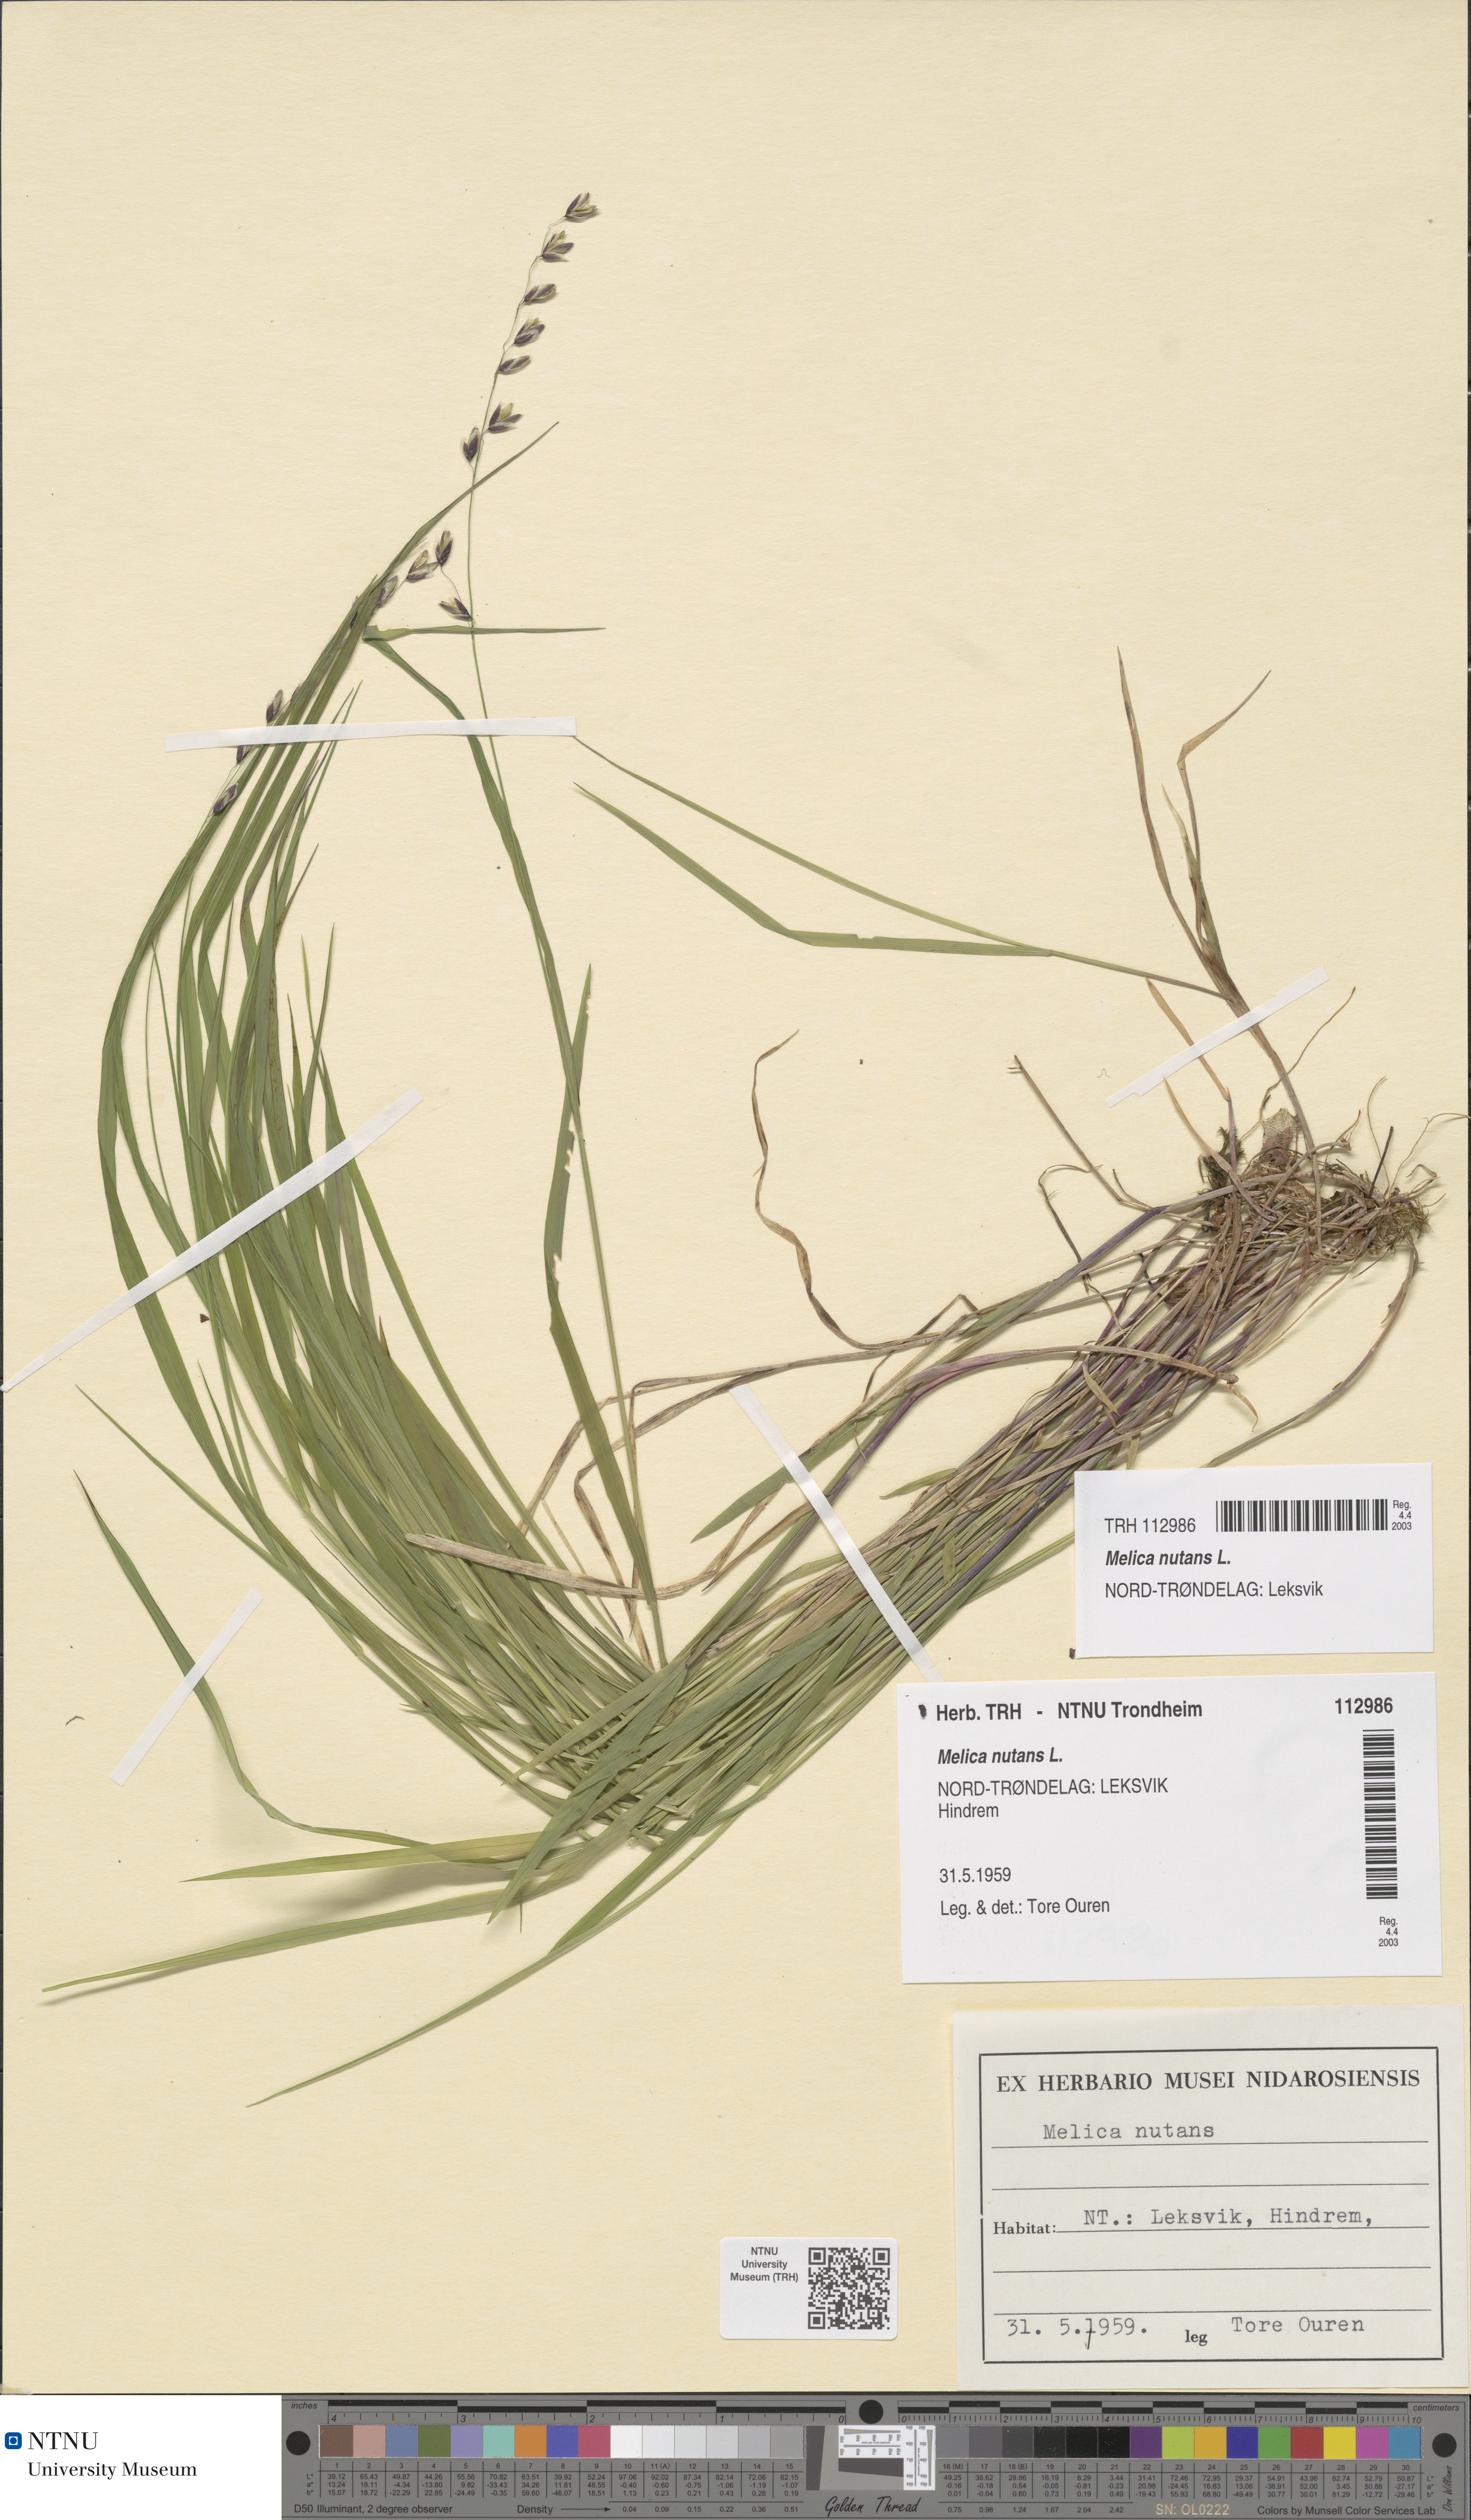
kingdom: Plantae
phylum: Tracheophyta
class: Liliopsida
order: Poales
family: Poaceae
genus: Melica
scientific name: Melica nutans
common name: Mountain melick
